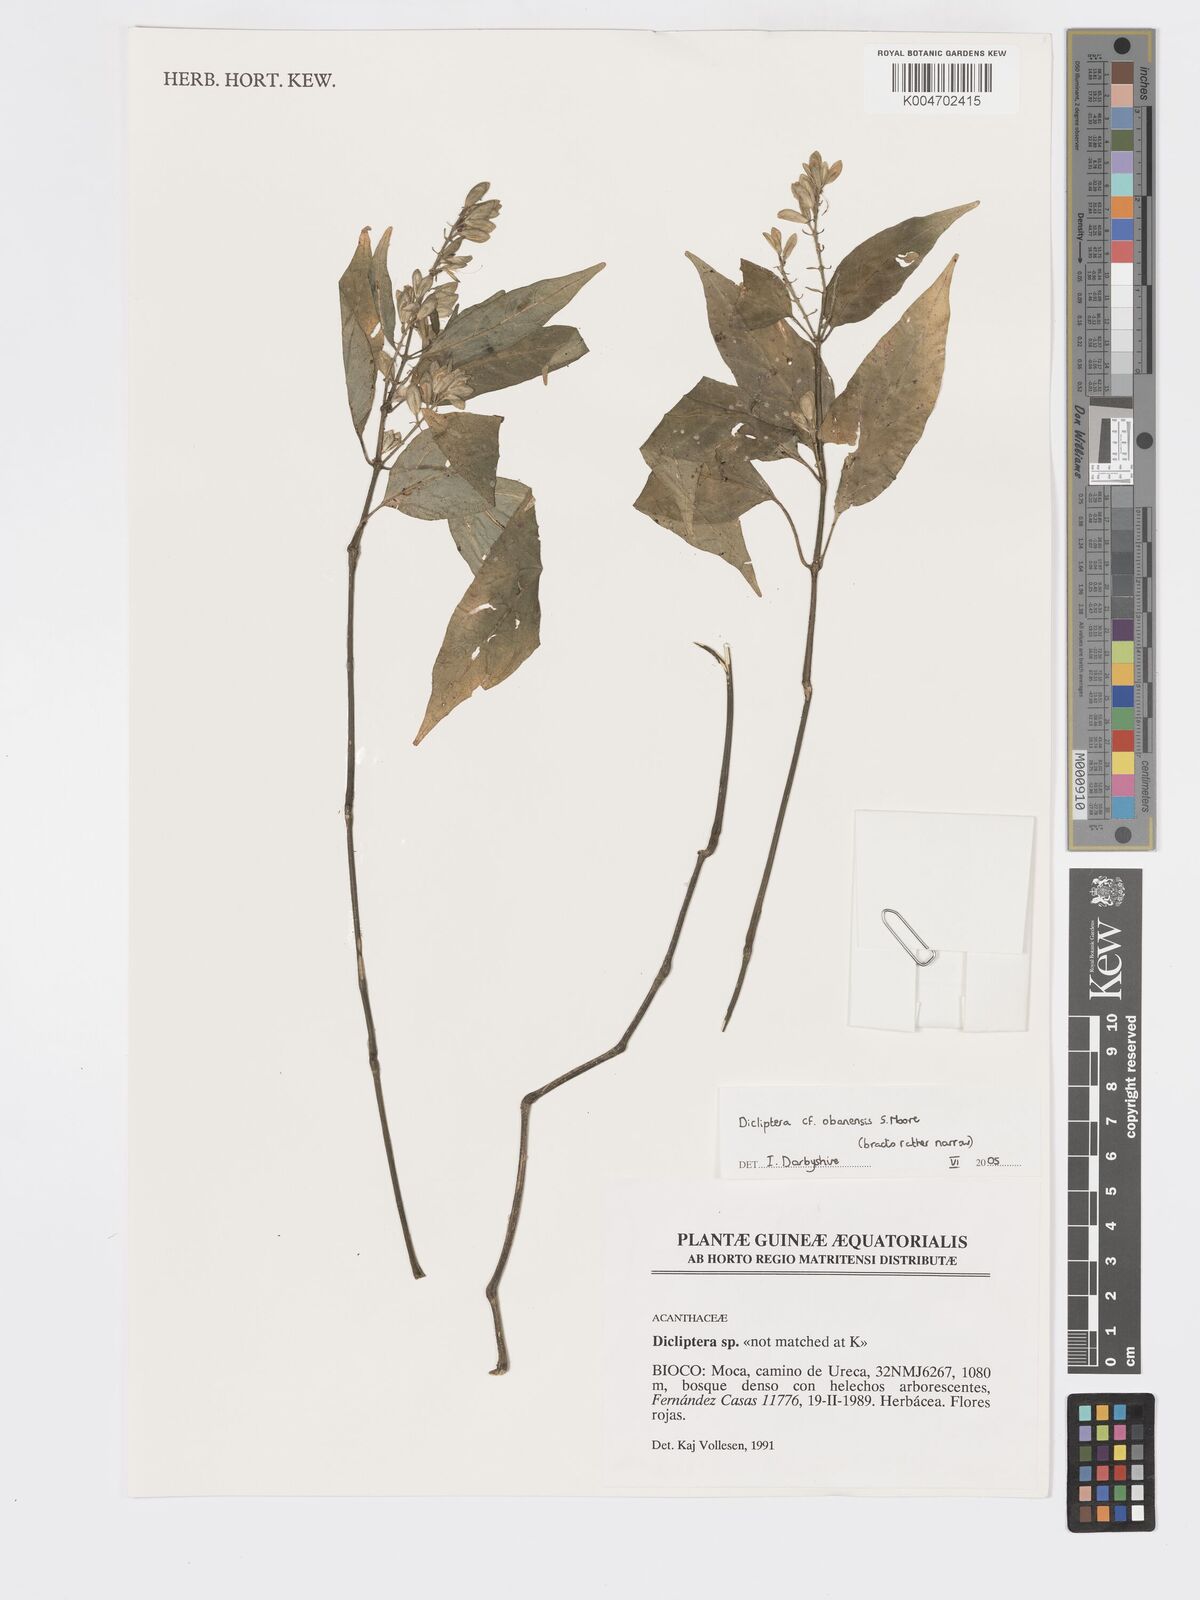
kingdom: Plantae
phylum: Tracheophyta
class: Magnoliopsida
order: Lamiales
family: Acanthaceae
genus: Dicliptera
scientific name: Dicliptera elliotii
